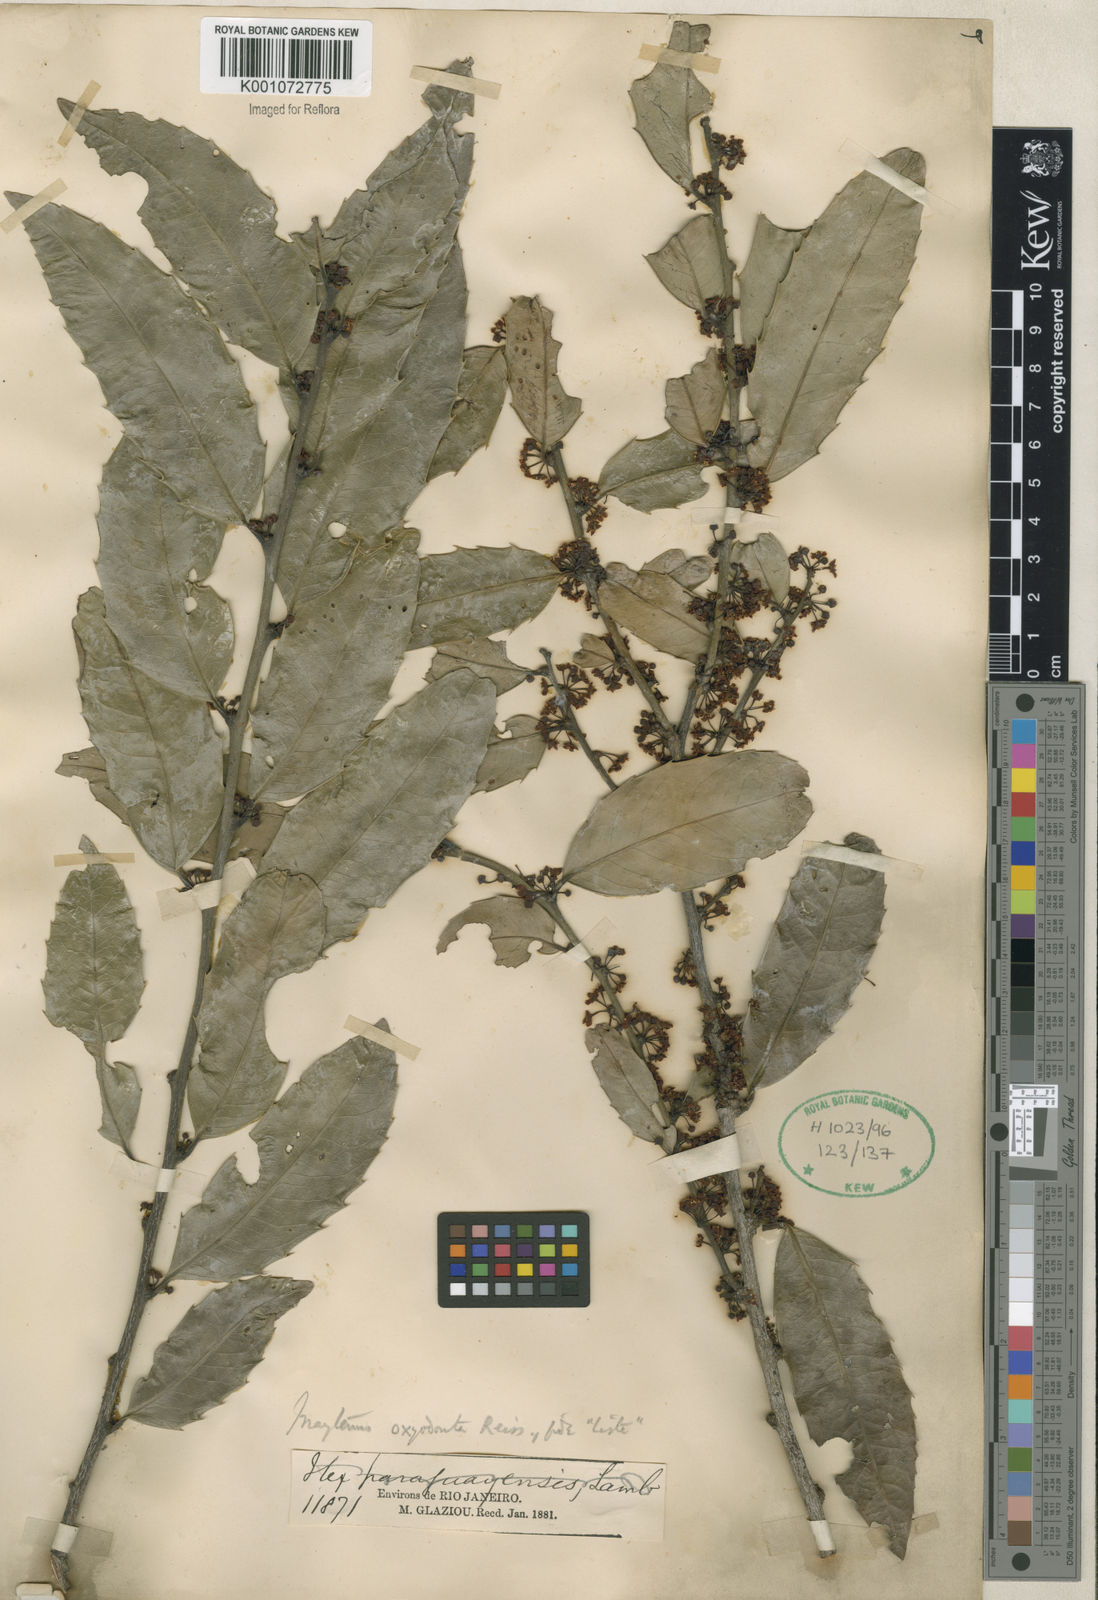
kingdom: Plantae
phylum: Tracheophyta
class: Magnoliopsida
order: Celastrales
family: Celastraceae
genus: Monteverdia
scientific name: Monteverdia aquifolium
